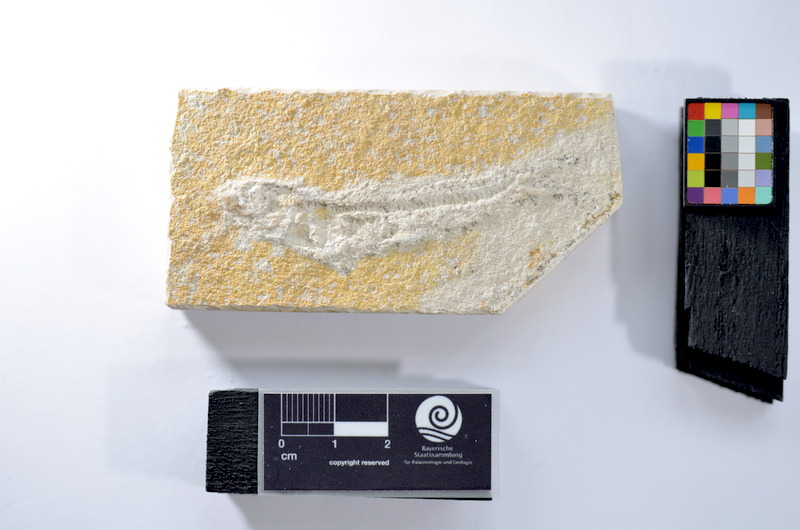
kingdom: Animalia
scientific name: Animalia
